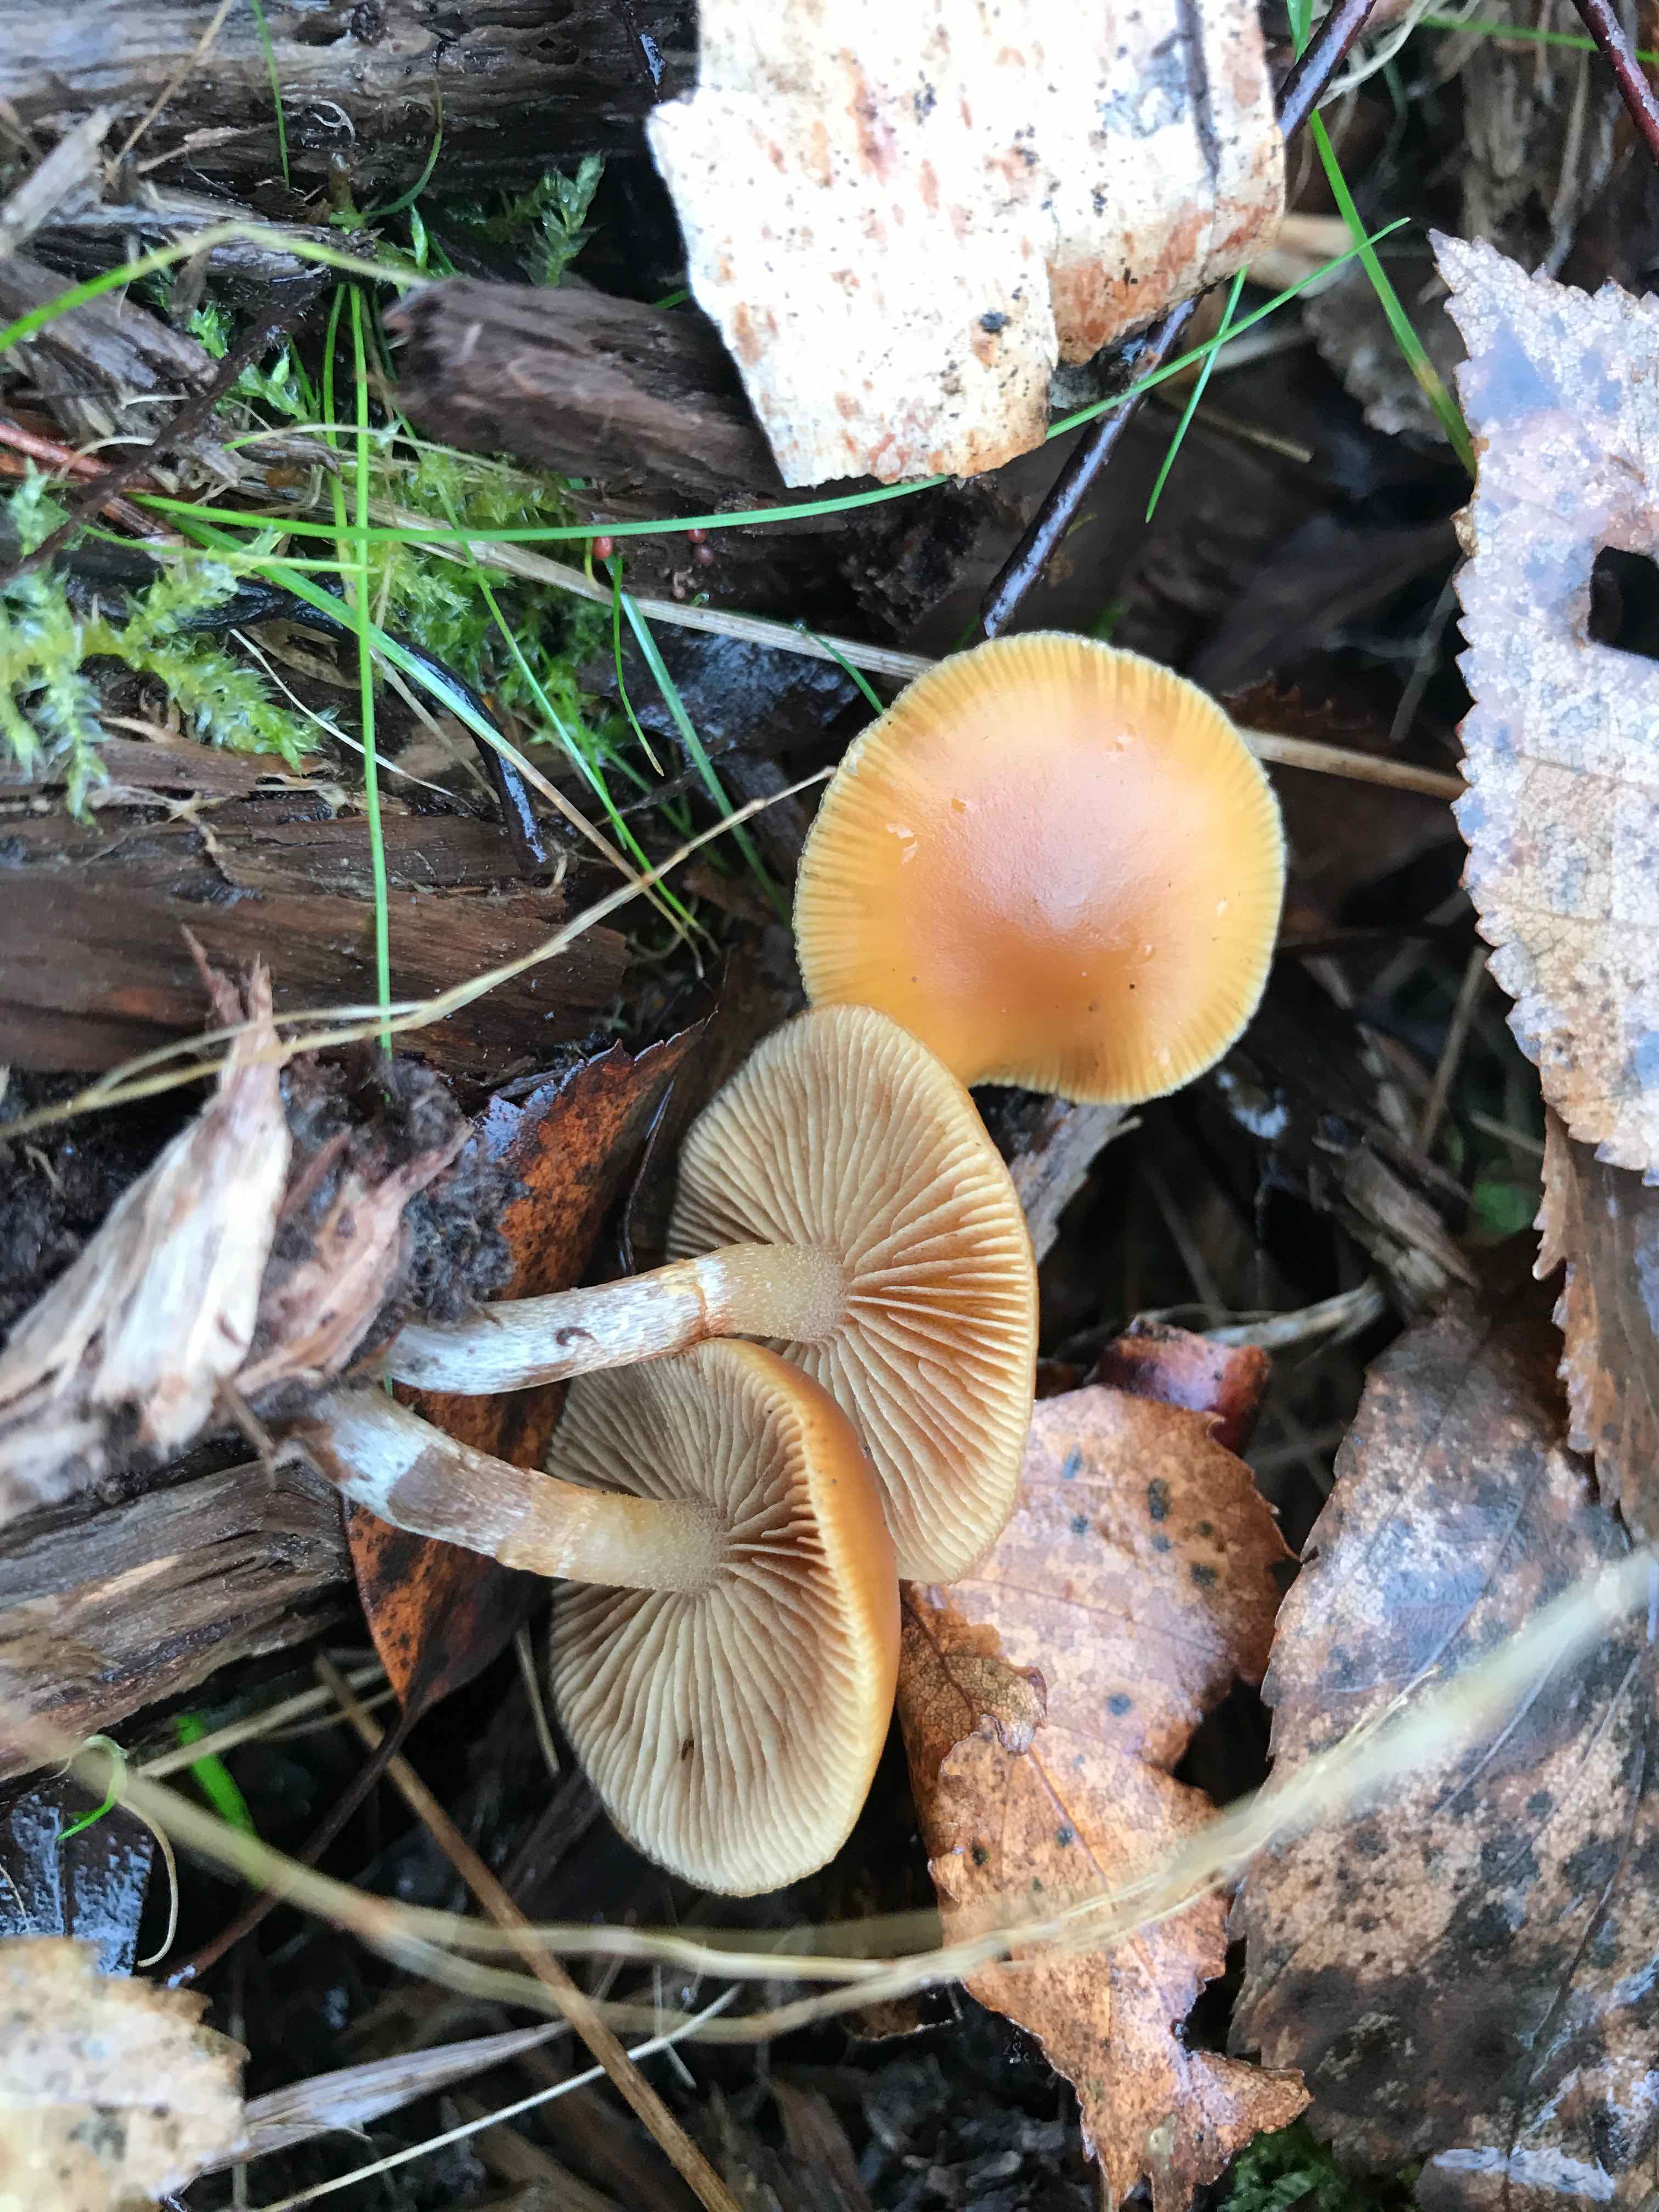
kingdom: Fungi
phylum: Basidiomycota
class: Agaricomycetes
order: Agaricales
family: Hymenogastraceae
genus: Galerina
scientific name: Galerina marginata
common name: randbæltet hjelmhat
